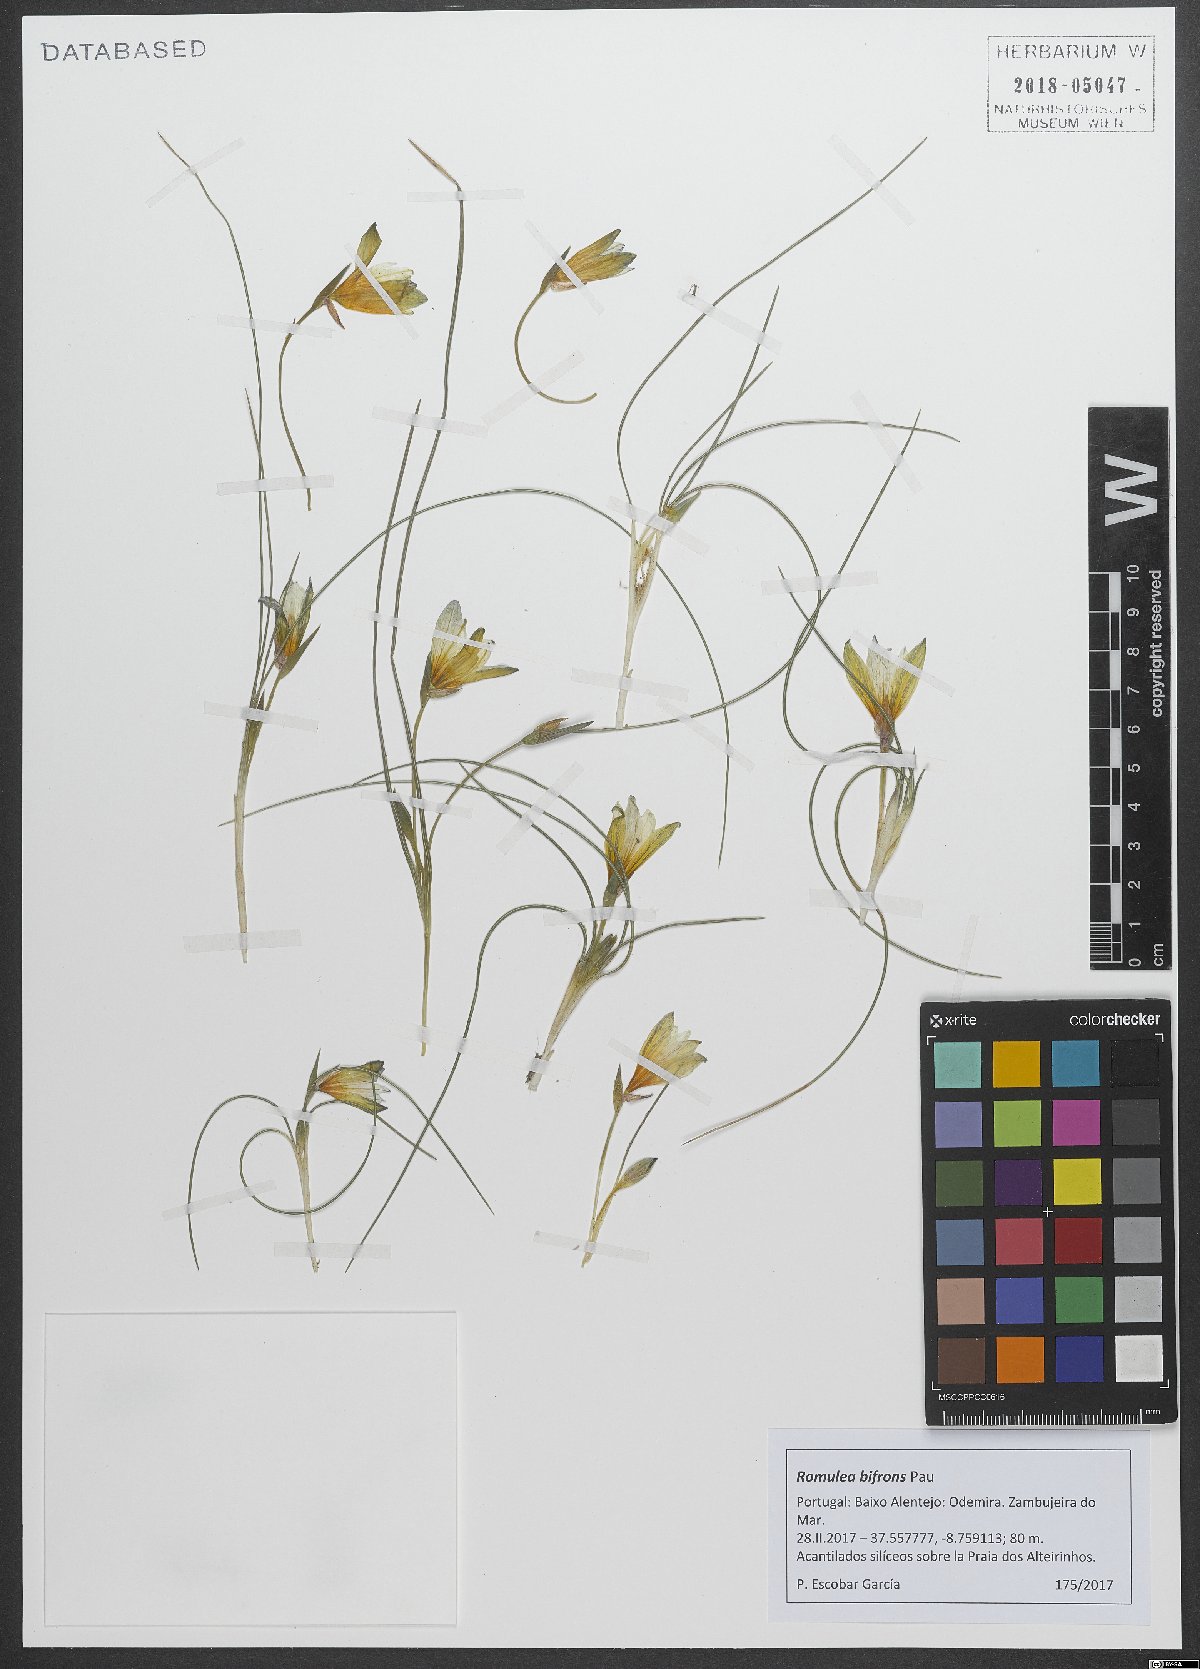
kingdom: Plantae
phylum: Tracheophyta
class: Liliopsida
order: Asparagales
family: Iridaceae
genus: Romulea
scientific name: Romulea ramiflora
